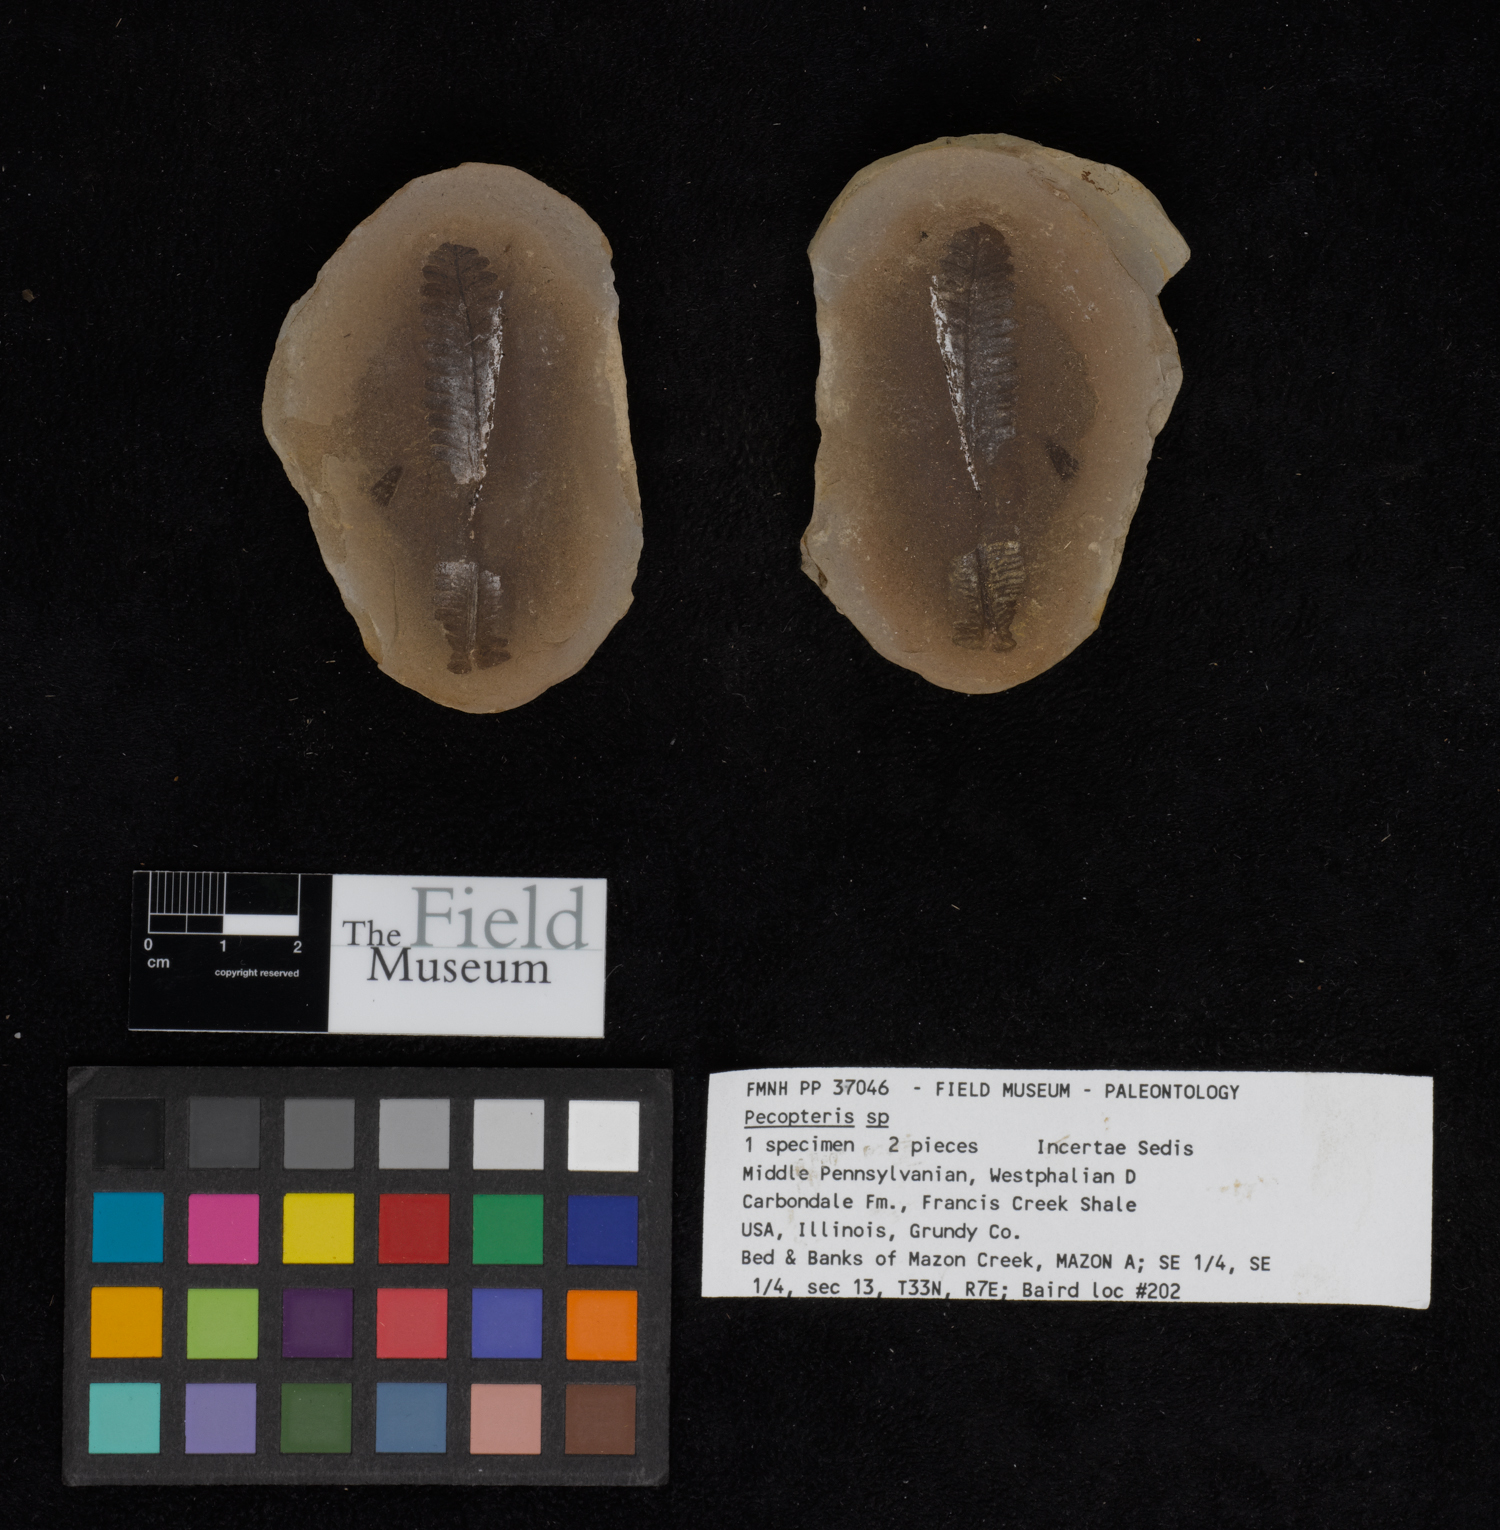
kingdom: Plantae
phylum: Tracheophyta
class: Polypodiopsida
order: Marattiales
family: Asterothecaceae
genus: Pecopteris
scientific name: Pecopteris
